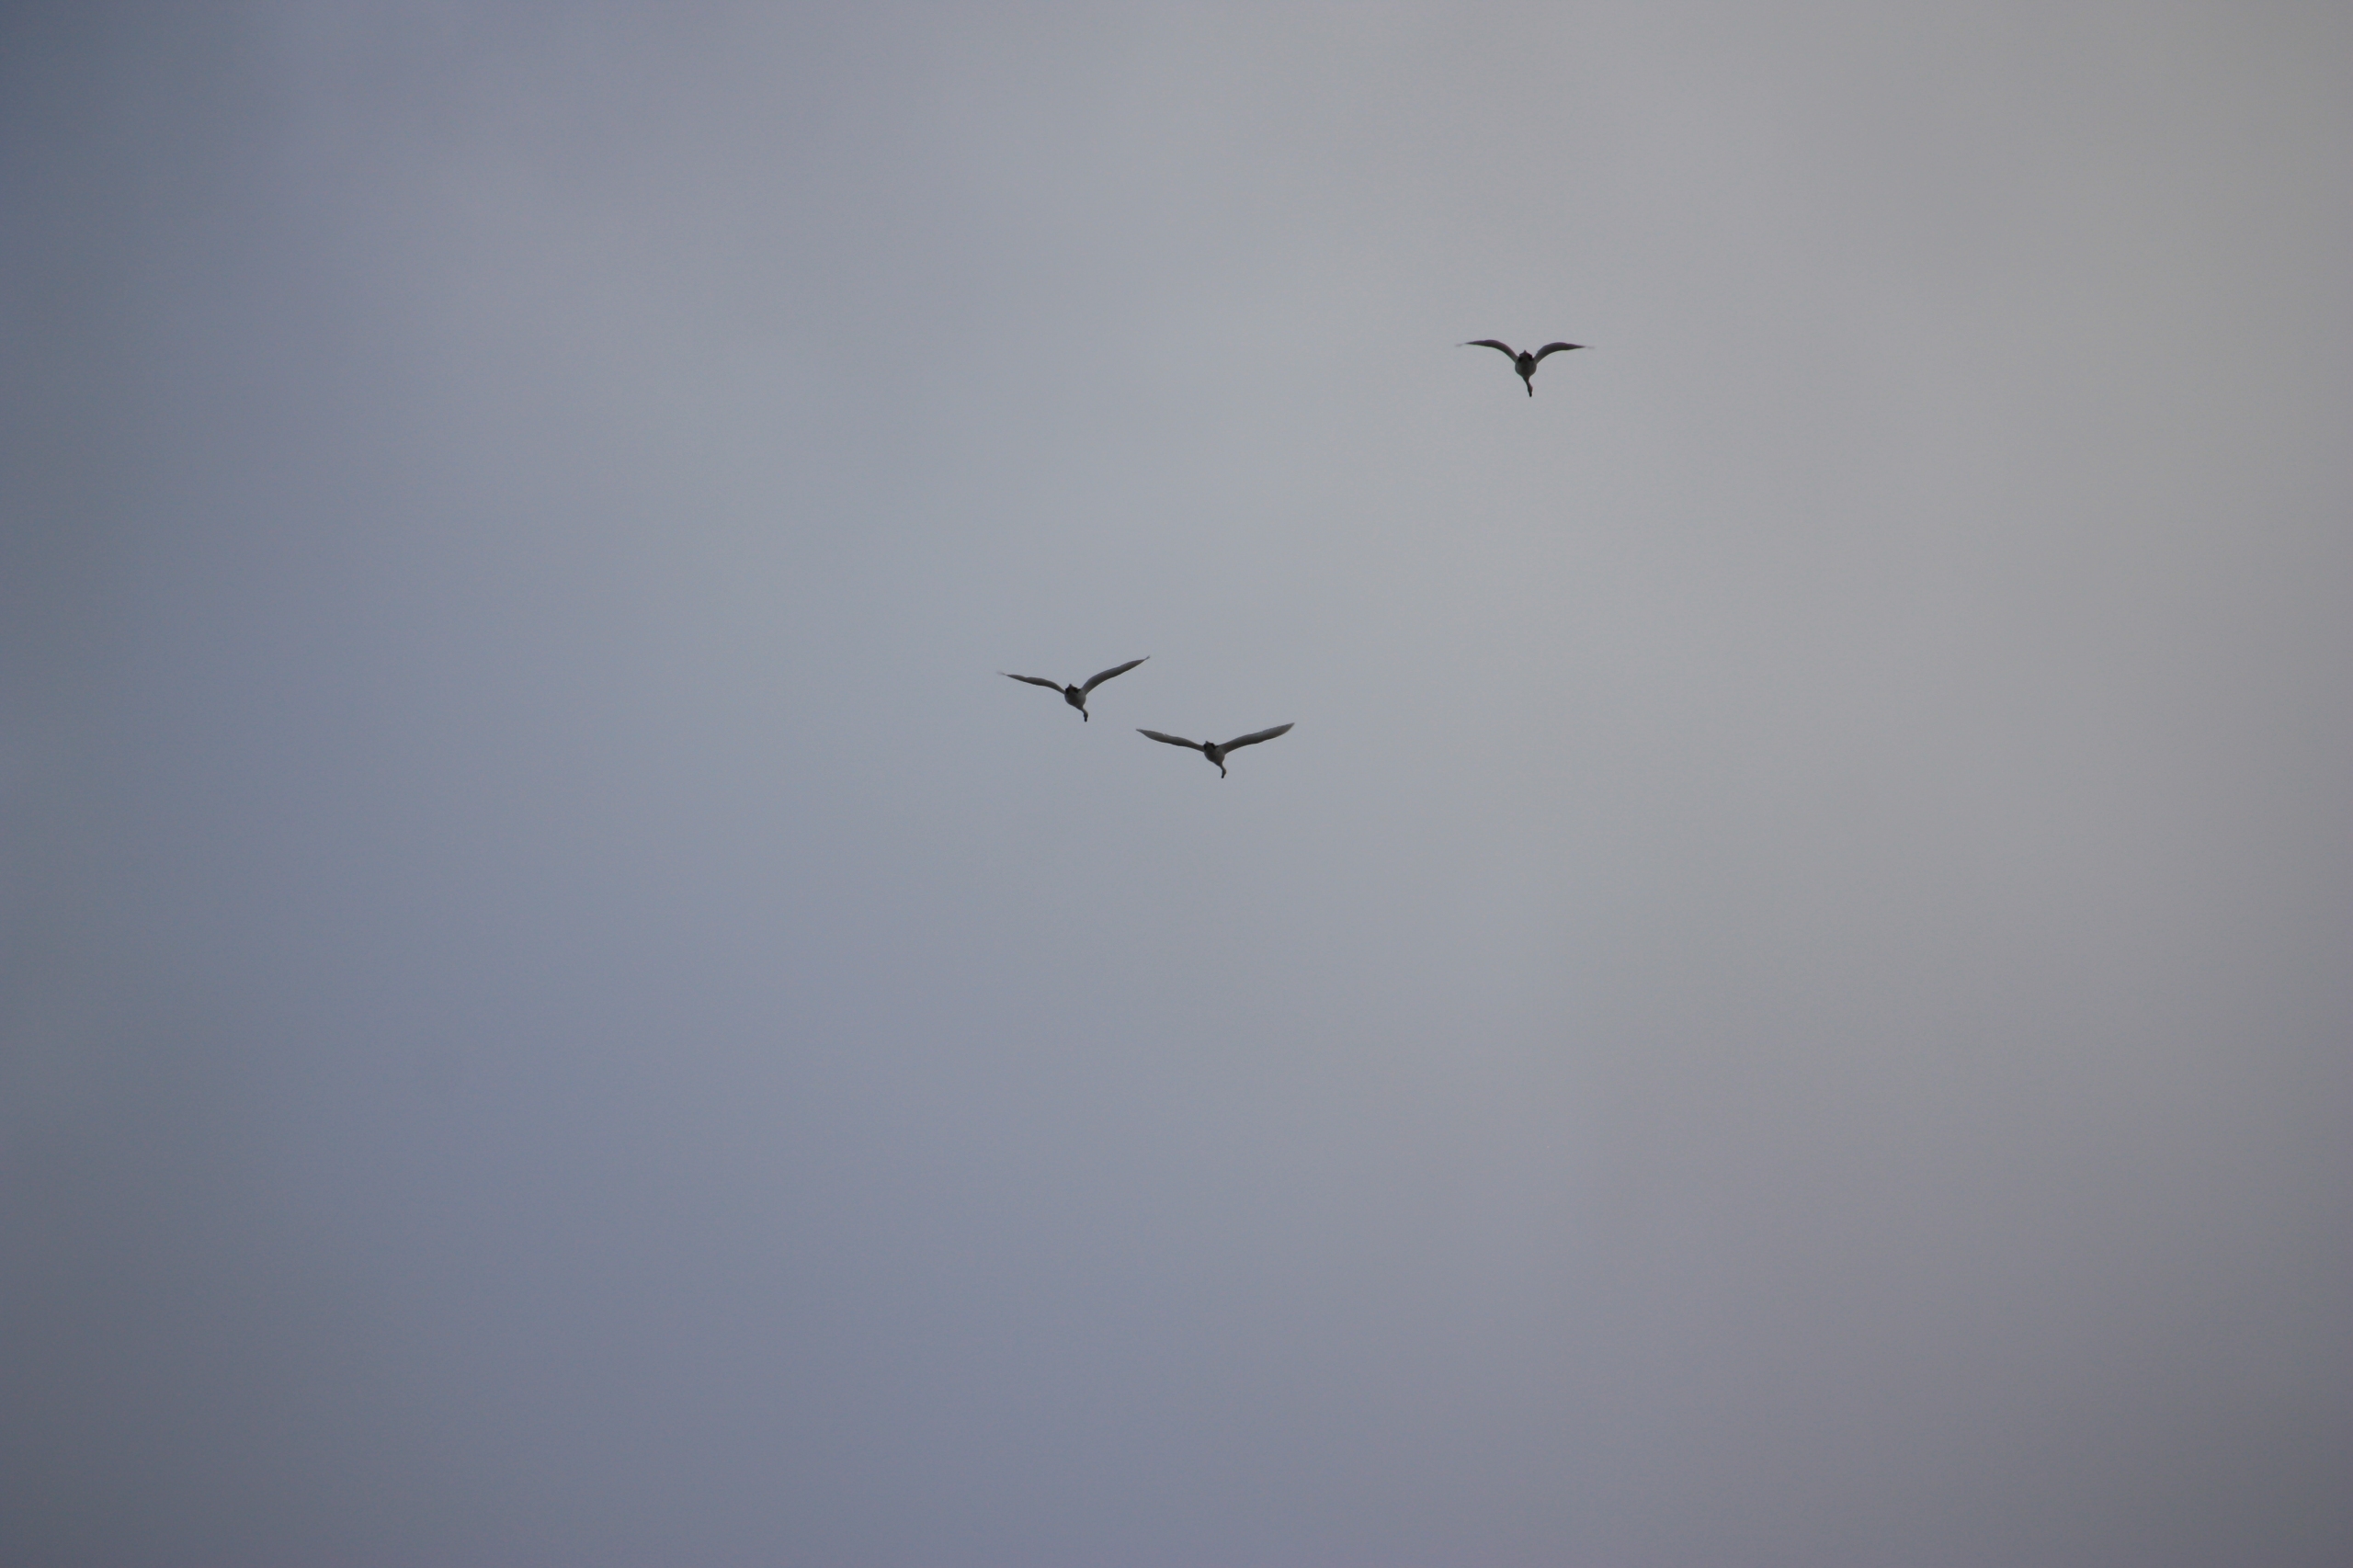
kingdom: Animalia
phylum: Chordata
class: Aves
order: Anseriformes
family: Anatidae
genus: Cygnus
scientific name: Cygnus olor
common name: Knopsvane
